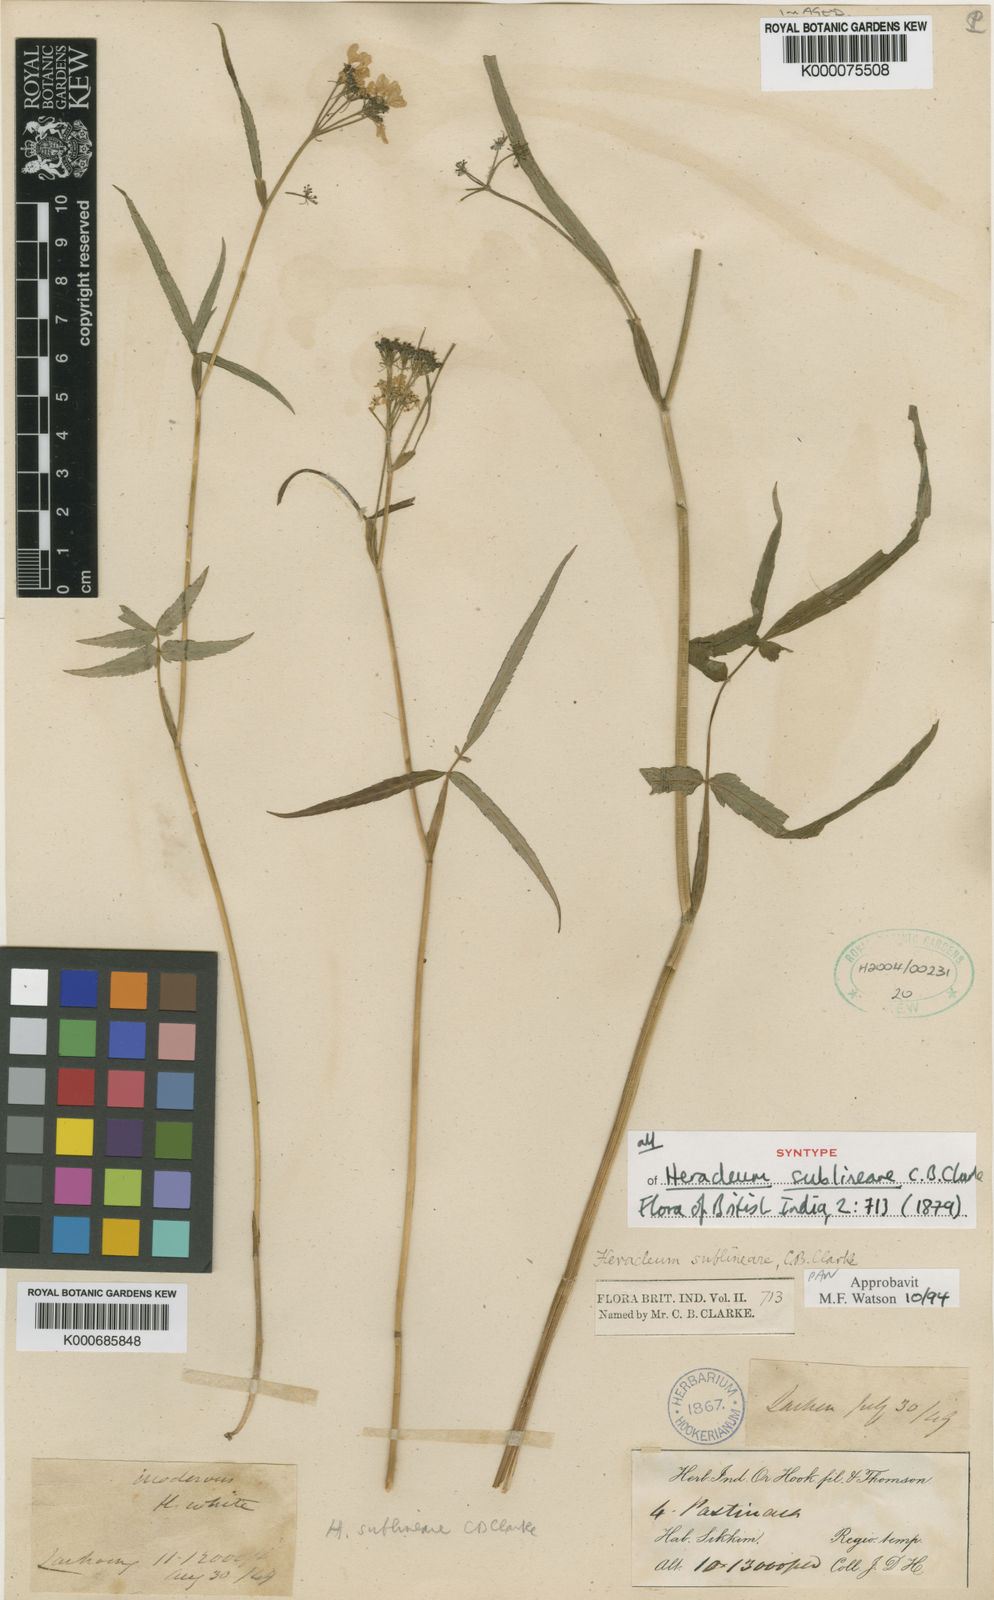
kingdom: Plantae
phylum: Tracheophyta
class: Magnoliopsida
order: Apiales
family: Apiaceae
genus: Tetrataenium
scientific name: Tetrataenium sublineare
